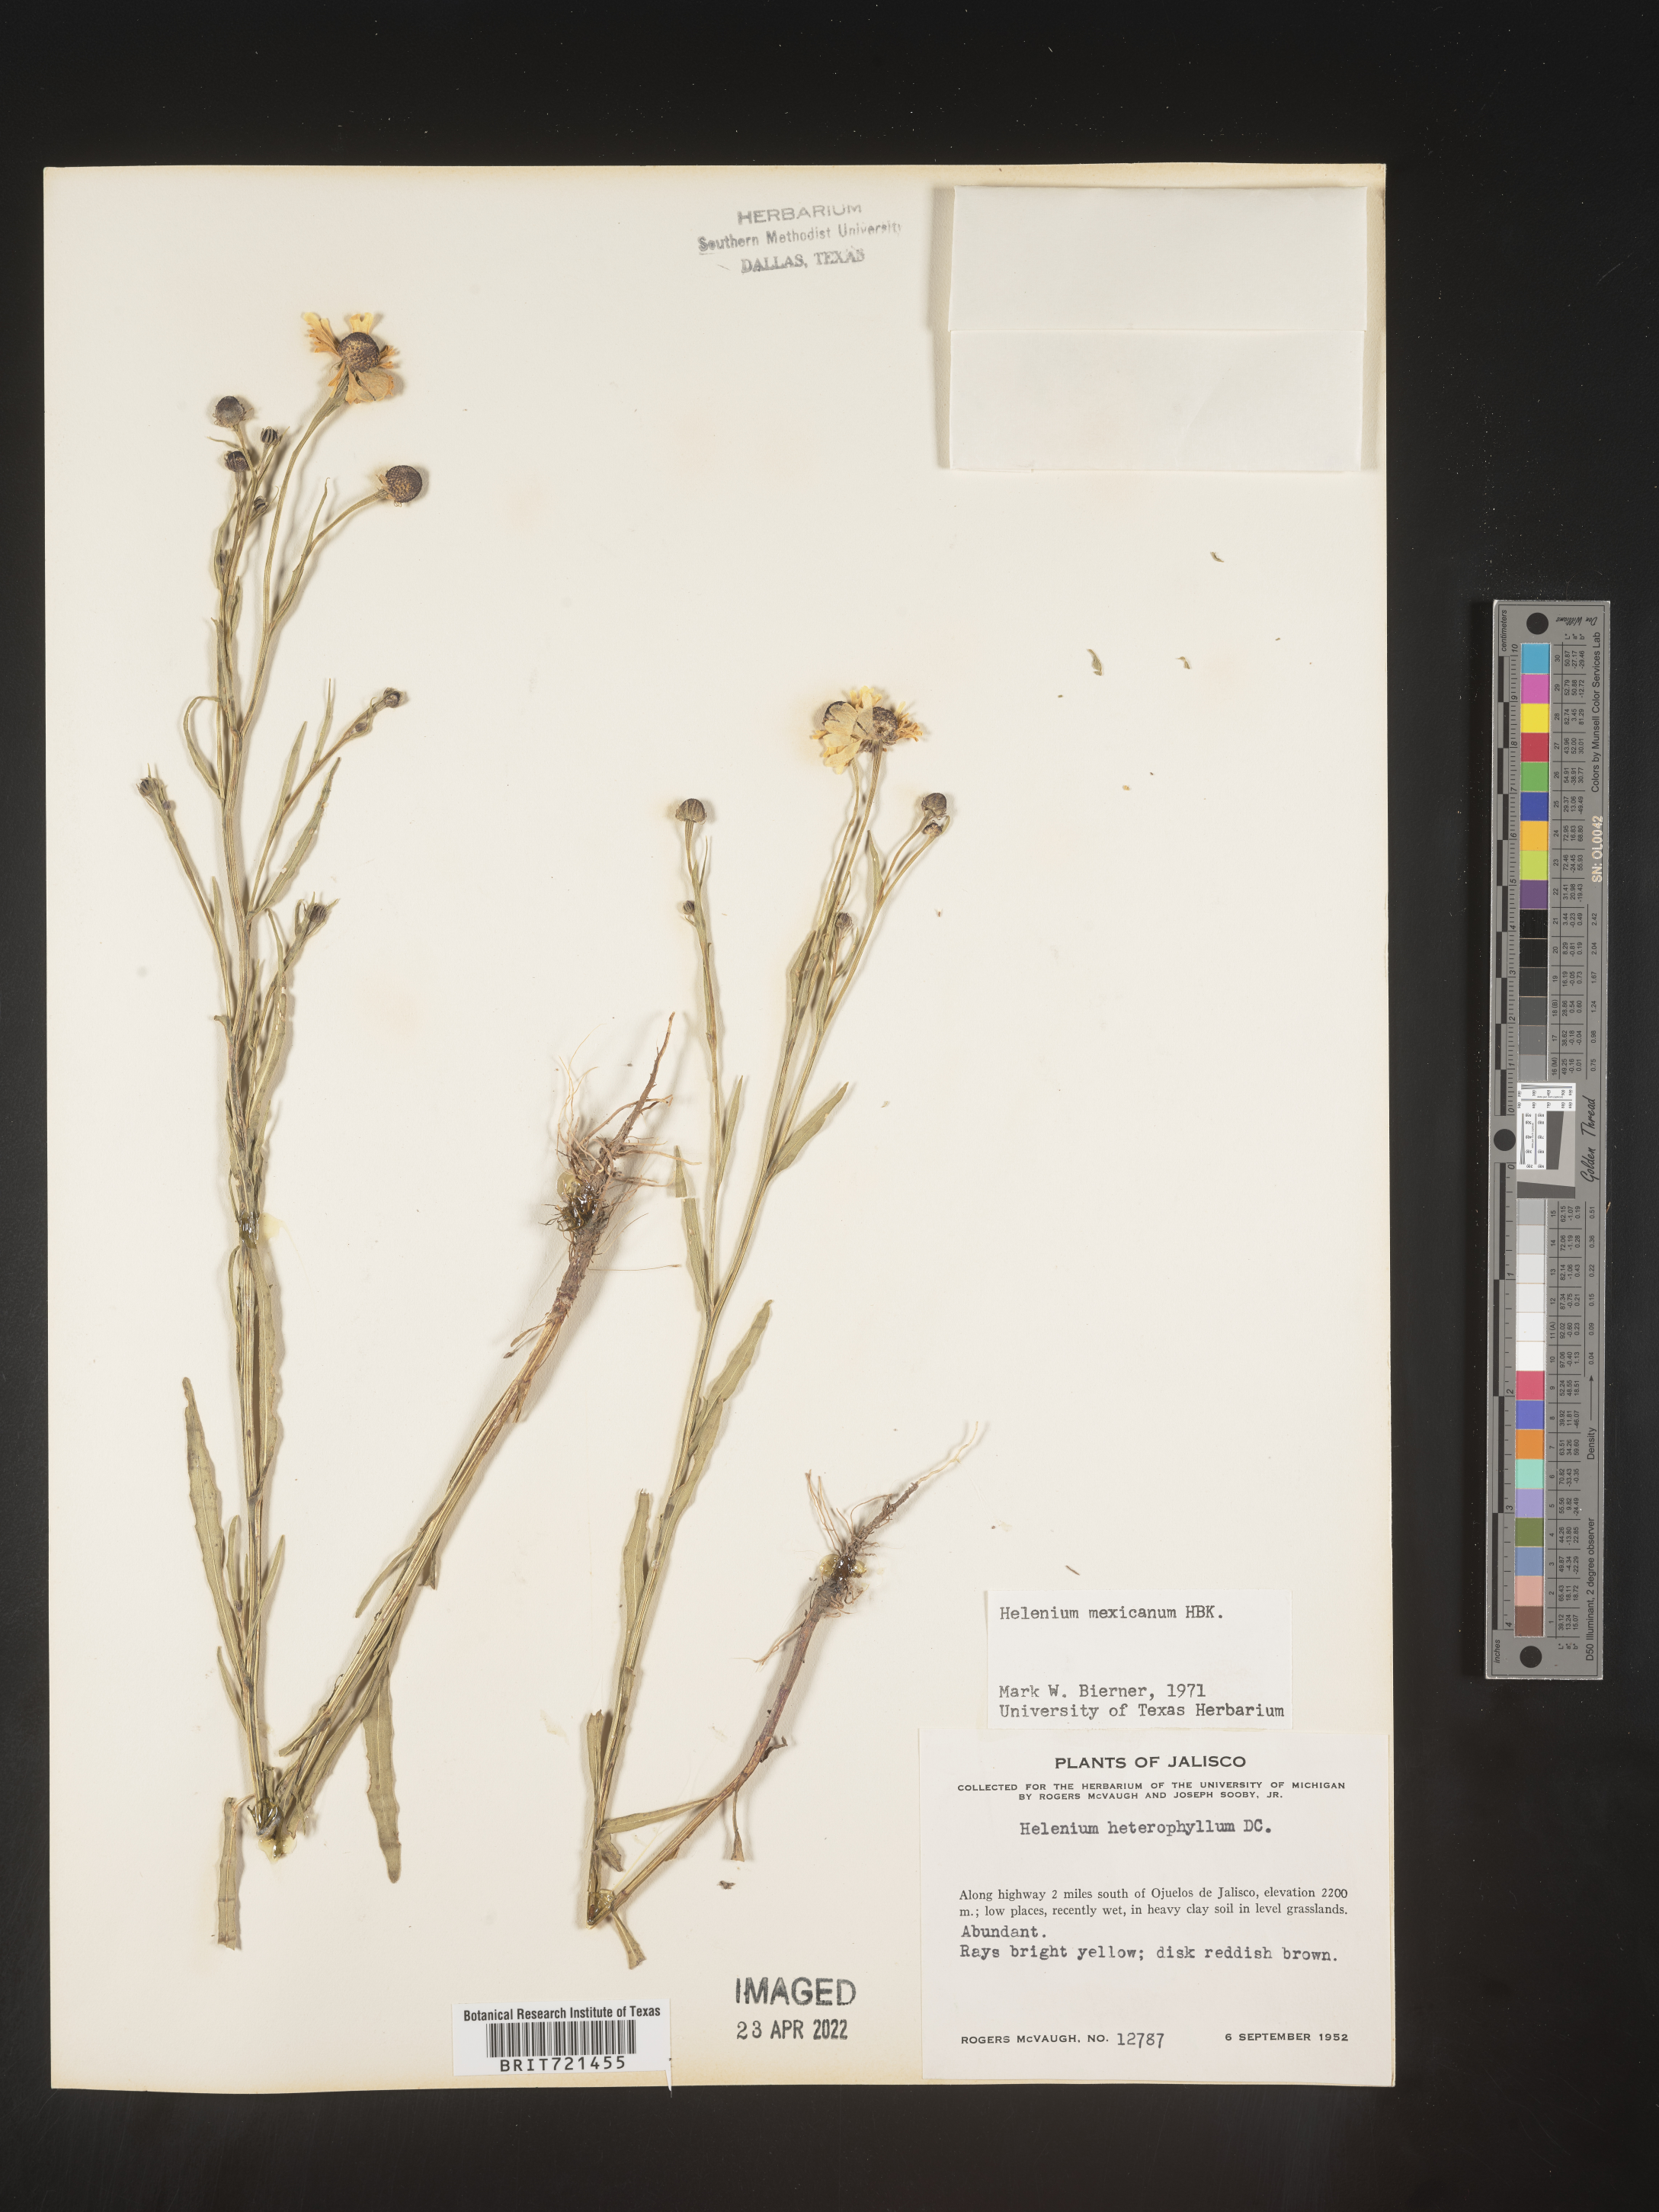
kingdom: Plantae
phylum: Tracheophyta
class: Magnoliopsida
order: Asterales
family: Asteraceae
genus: Helenium
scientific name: Helenium
